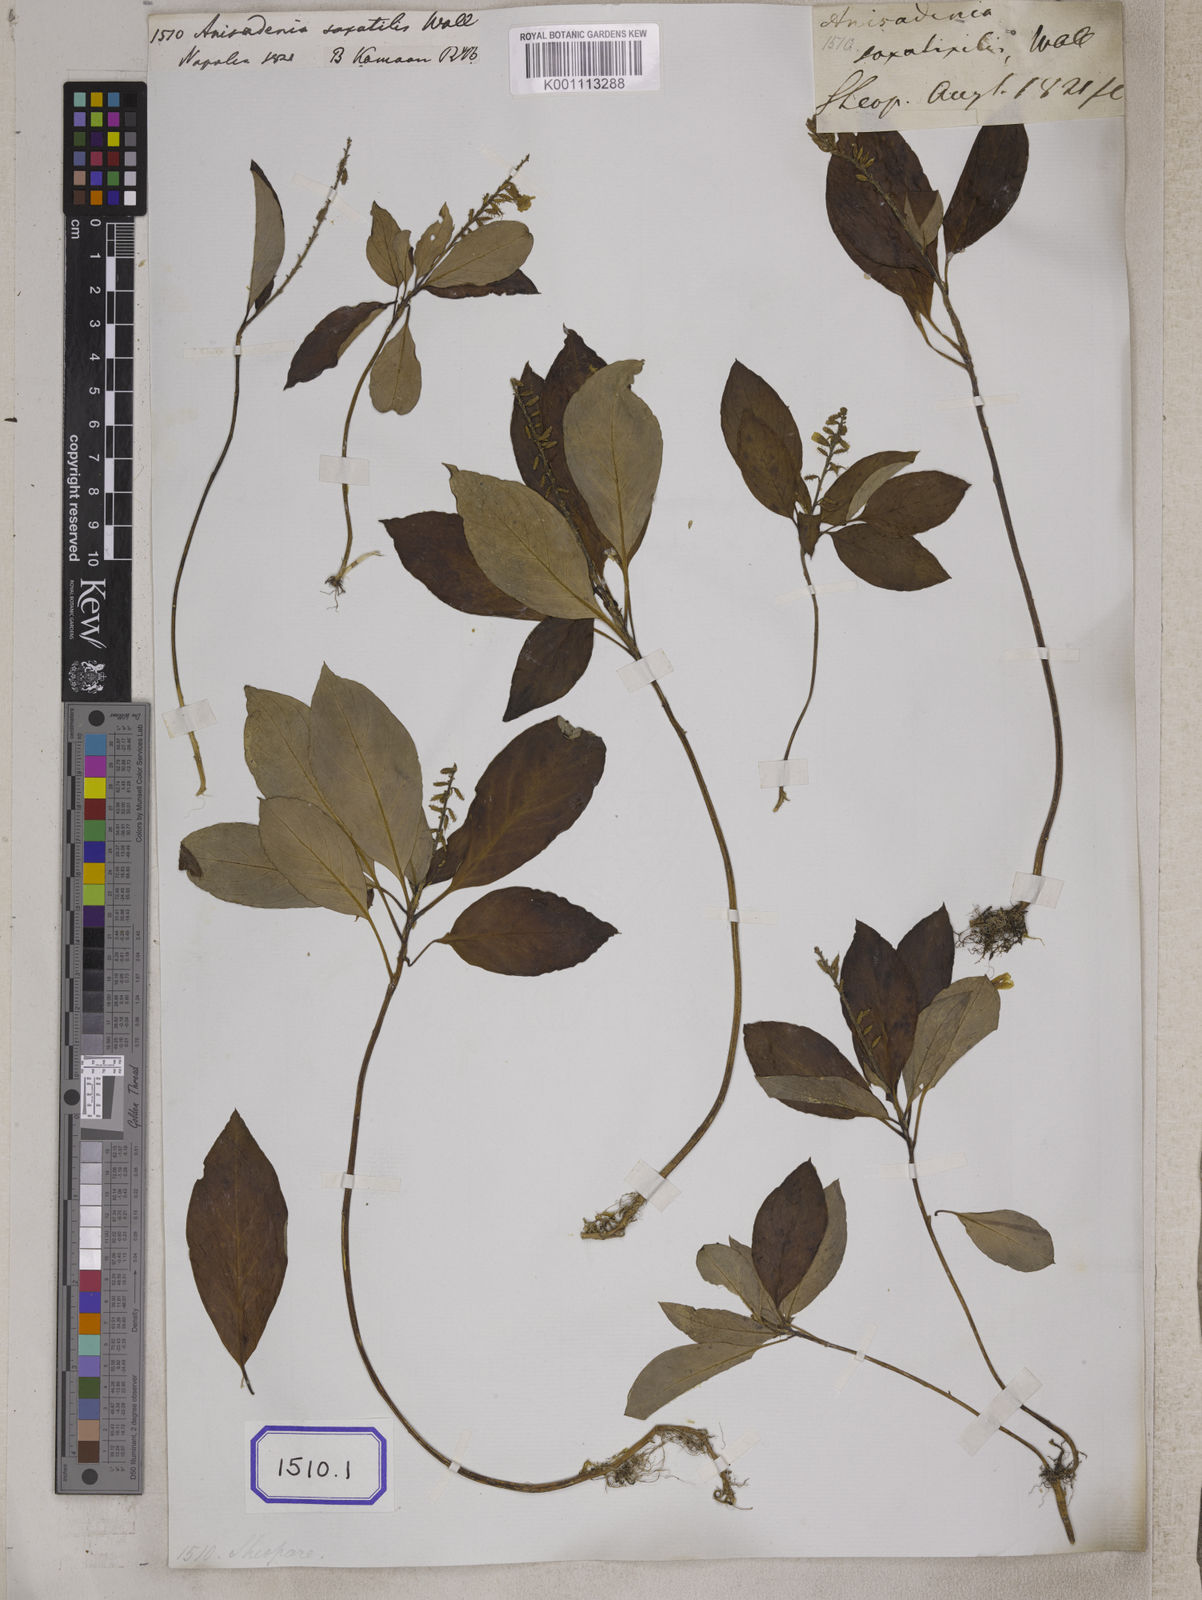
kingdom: Plantae
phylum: Tracheophyta
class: Magnoliopsida
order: Malpighiales
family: Linaceae
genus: Anisadenia
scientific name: Anisadenia
